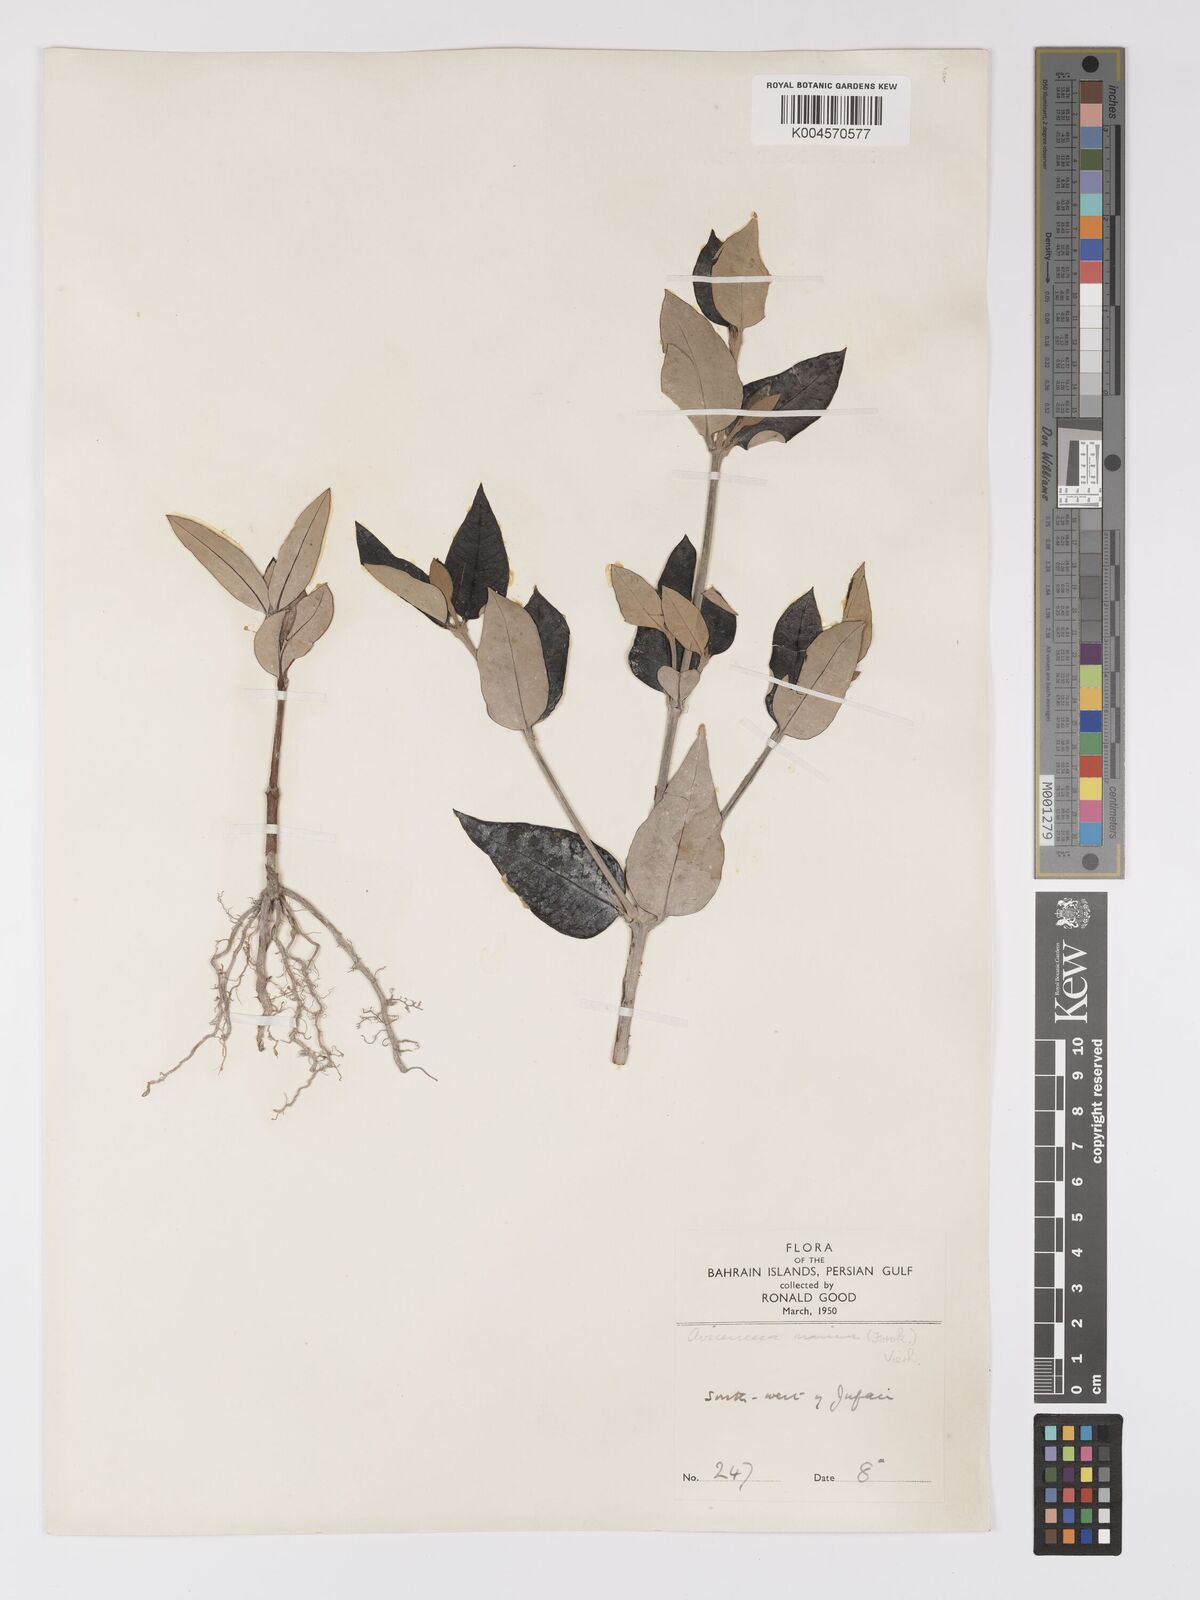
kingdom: Plantae
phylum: Tracheophyta
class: Magnoliopsida
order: Lamiales
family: Acanthaceae
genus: Avicennia
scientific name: Avicennia marina
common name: Gray mangrove
